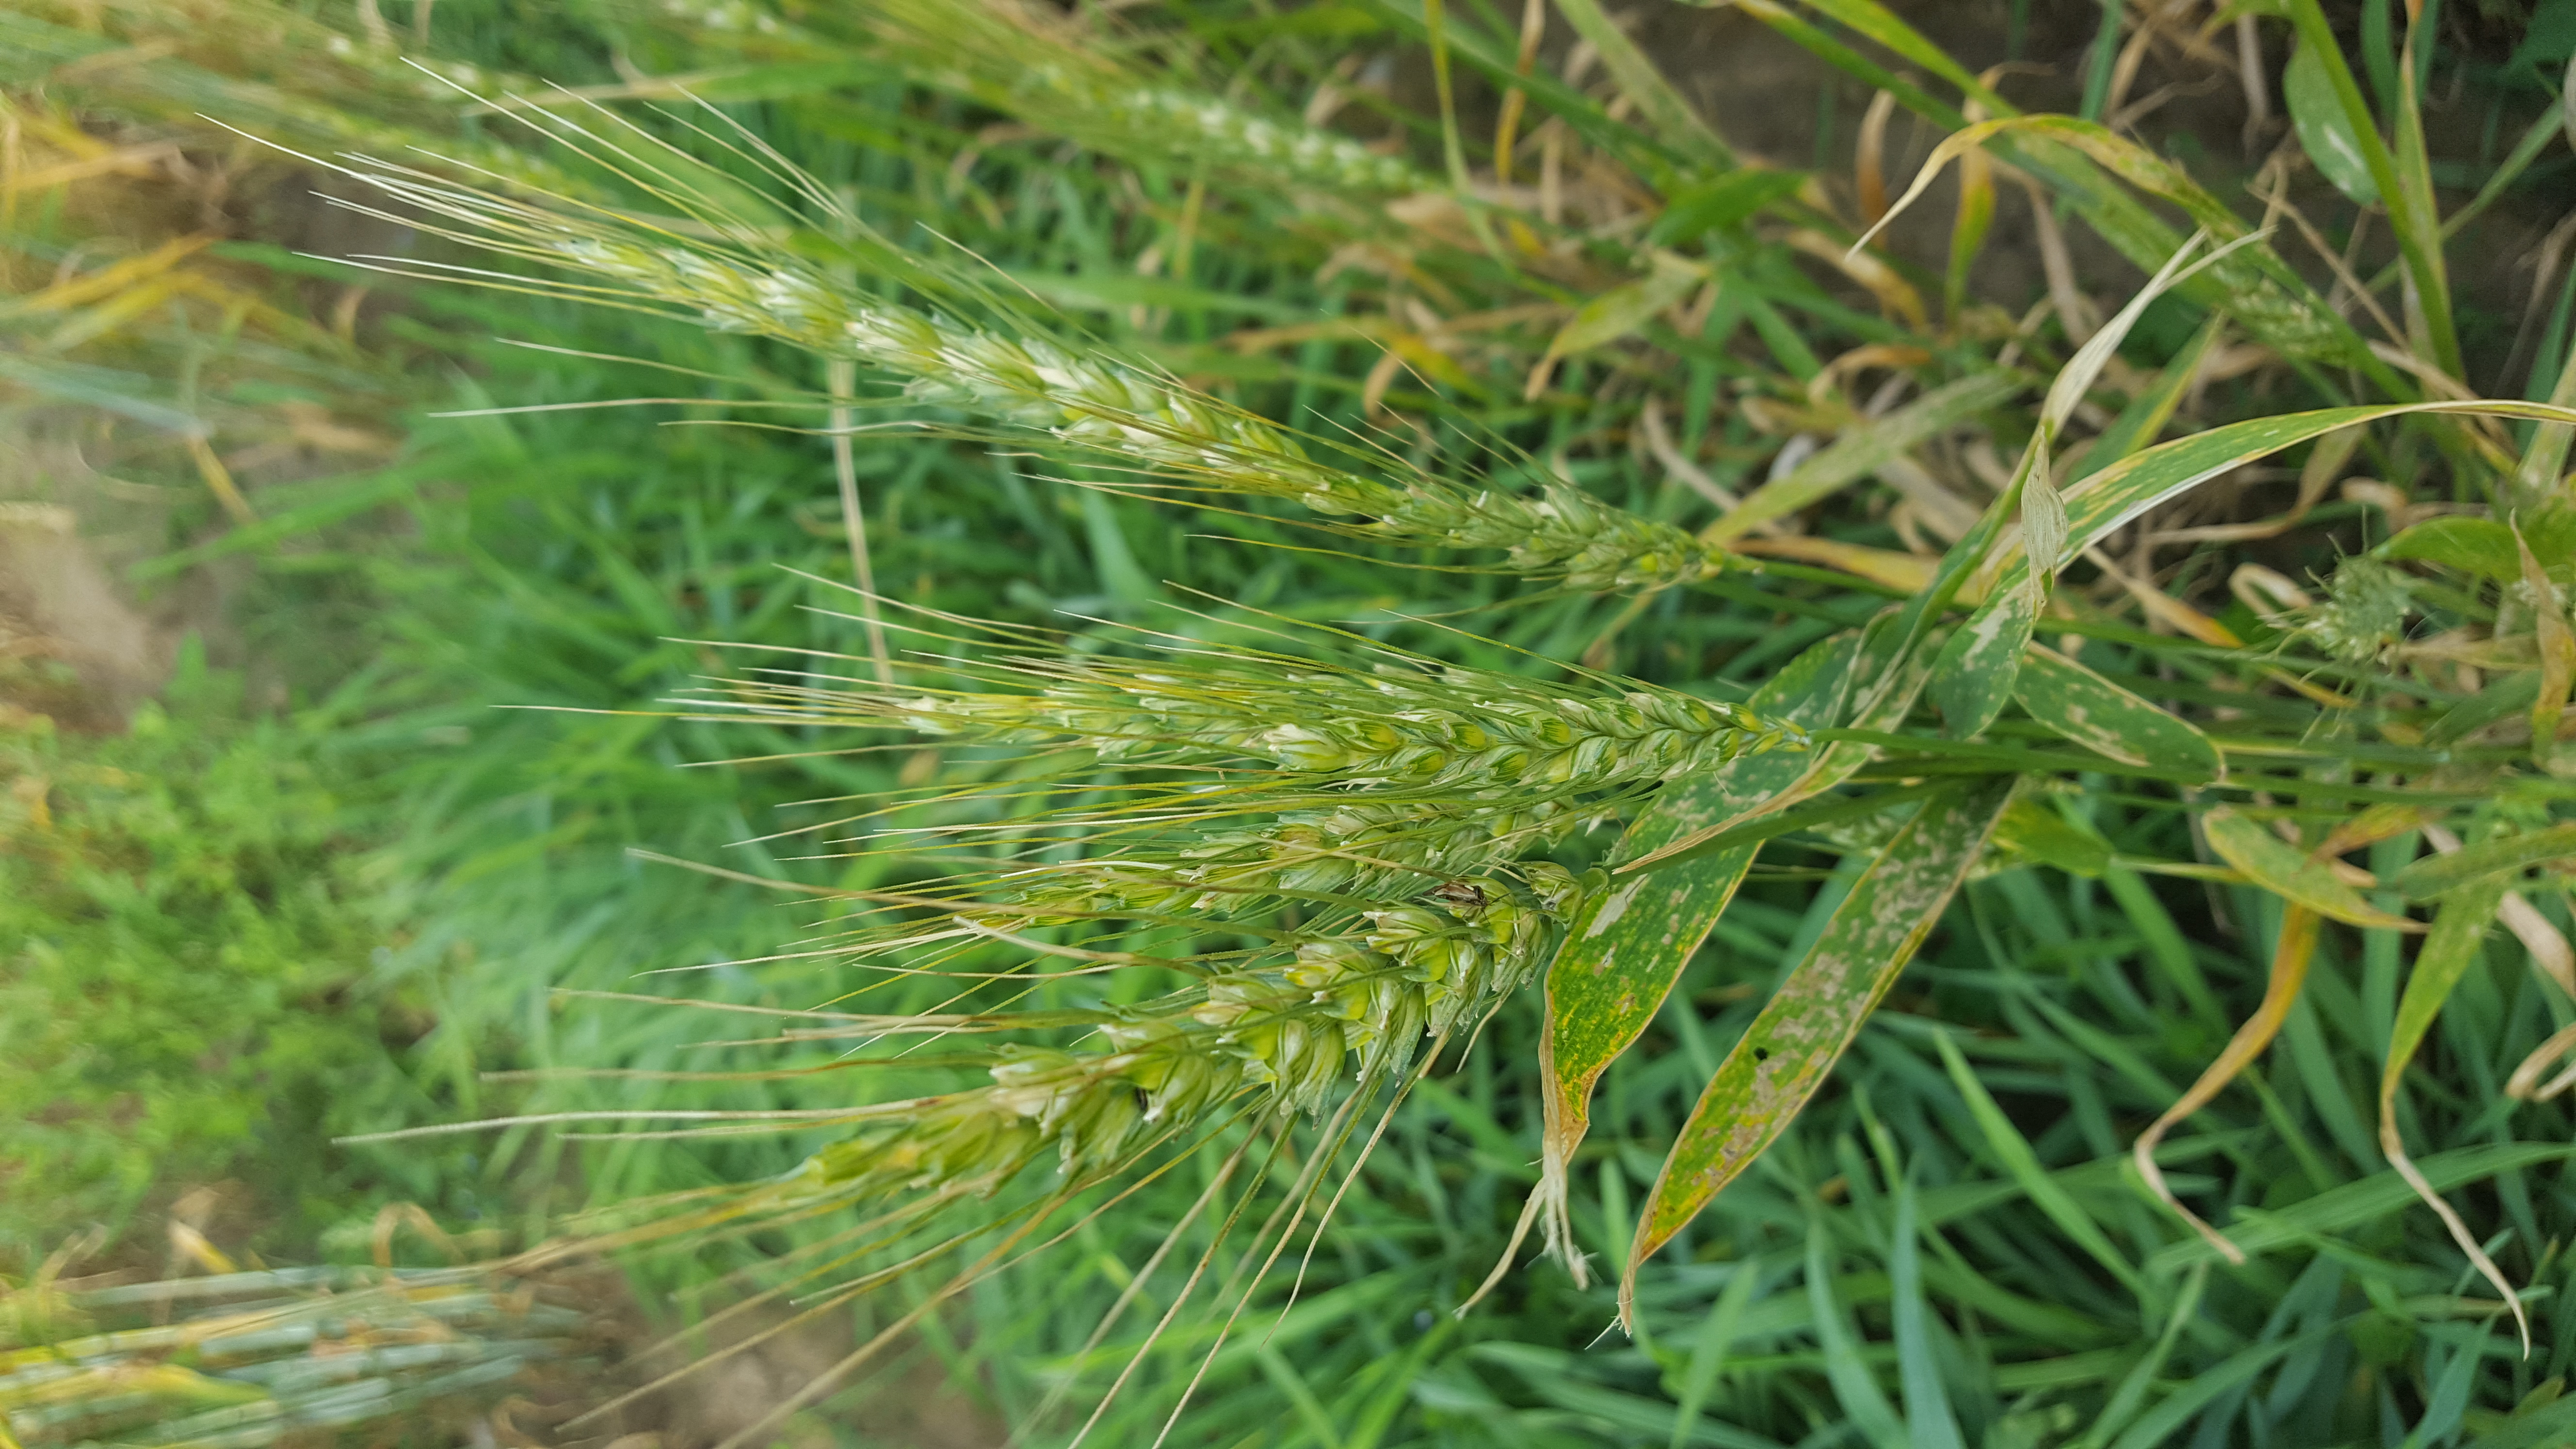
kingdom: Plantae
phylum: Tracheophyta
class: Liliopsida
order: Poales
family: Poaceae
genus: Triticum
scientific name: Triticum aestivum
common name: Common wheat
